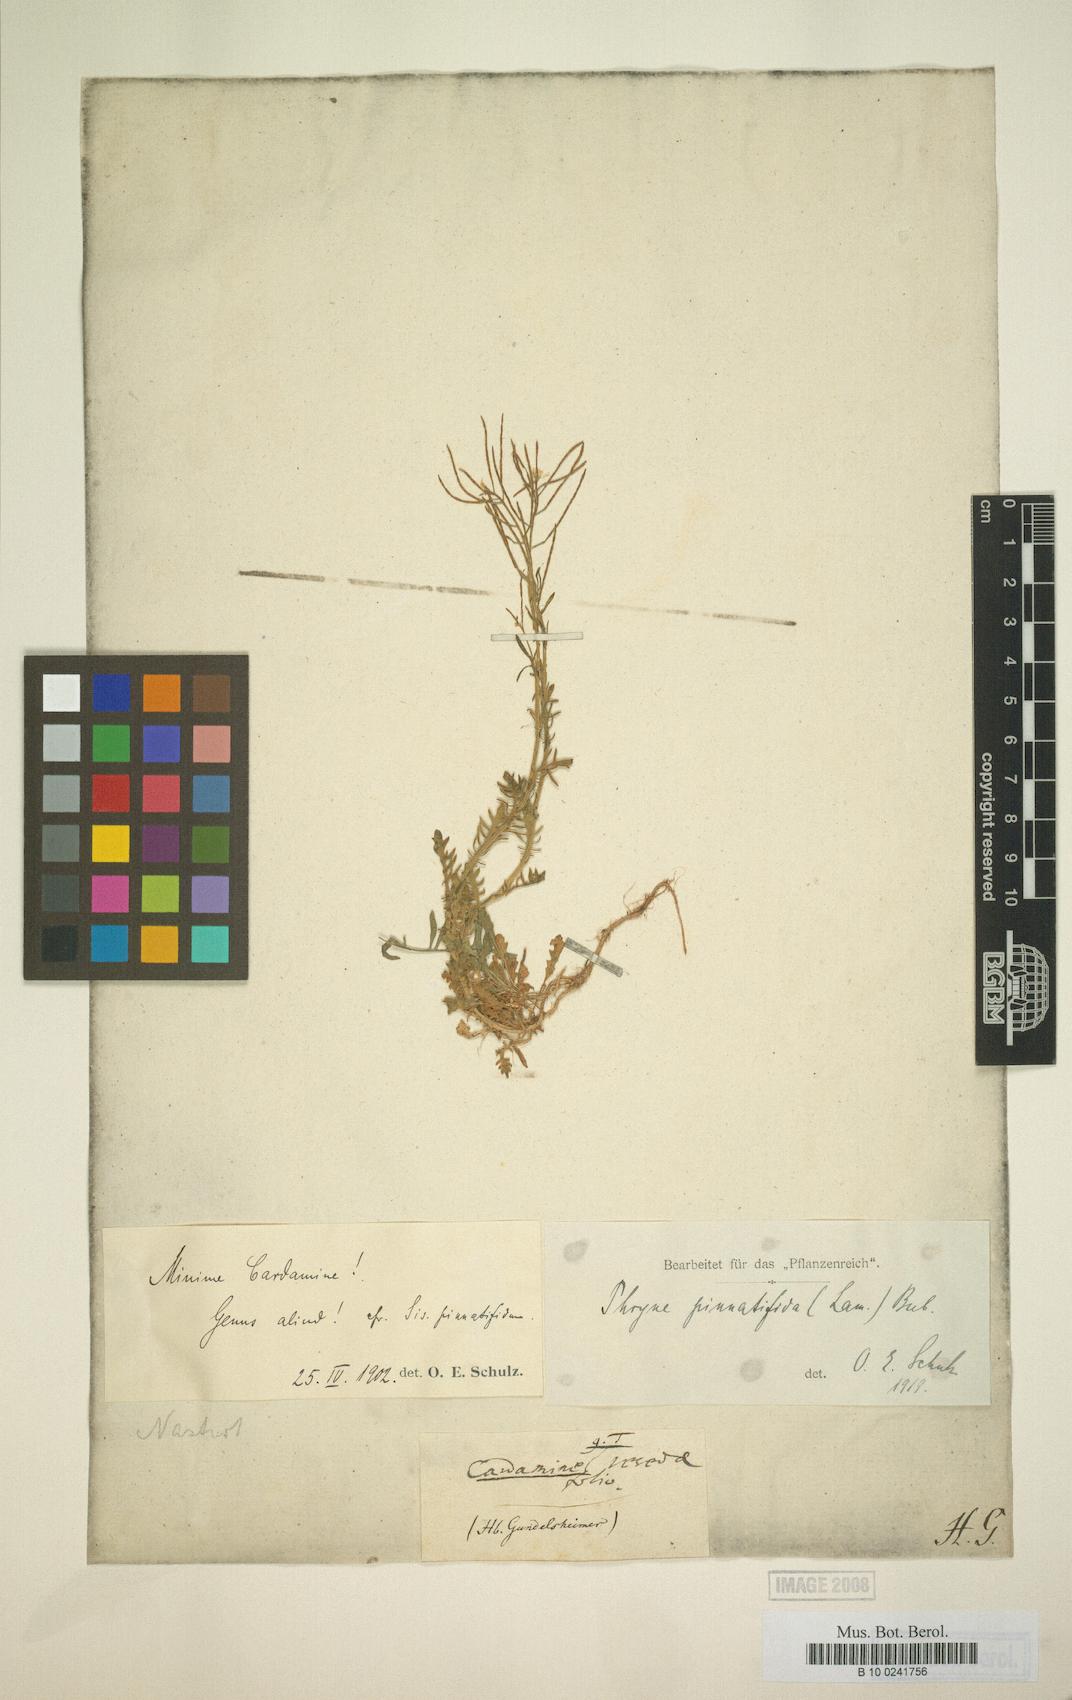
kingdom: Plantae
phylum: Tracheophyta
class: Magnoliopsida
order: Brassicales
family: Brassicaceae
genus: Murbeckiella
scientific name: Murbeckiella pinnatifida
